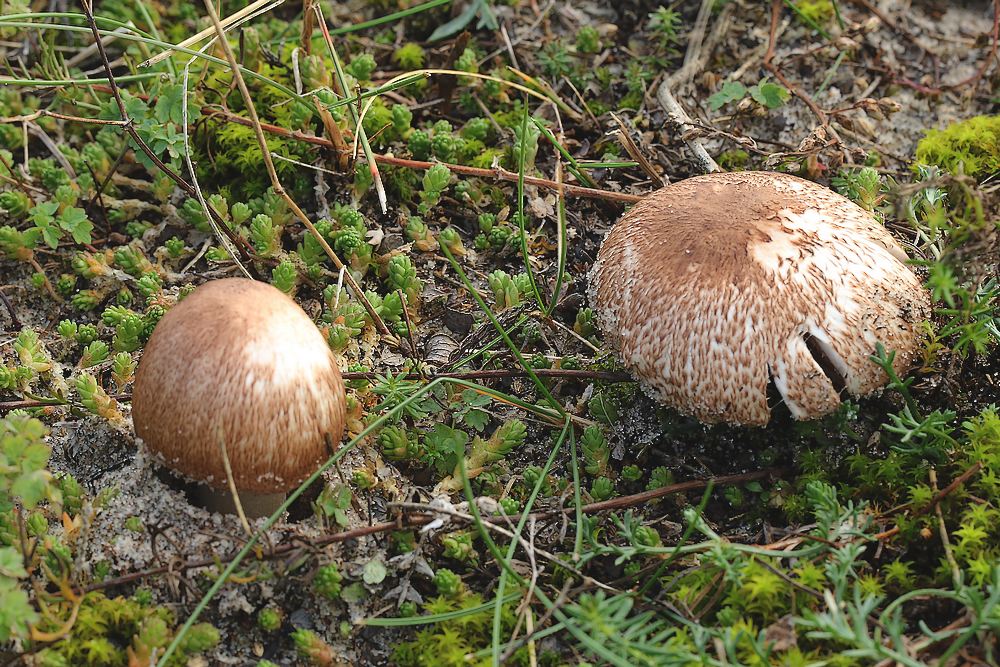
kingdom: Fungi
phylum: Basidiomycota
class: Agaricomycetes
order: Agaricales
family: Agaricaceae
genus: Agaricus
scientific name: Agaricus freirei
